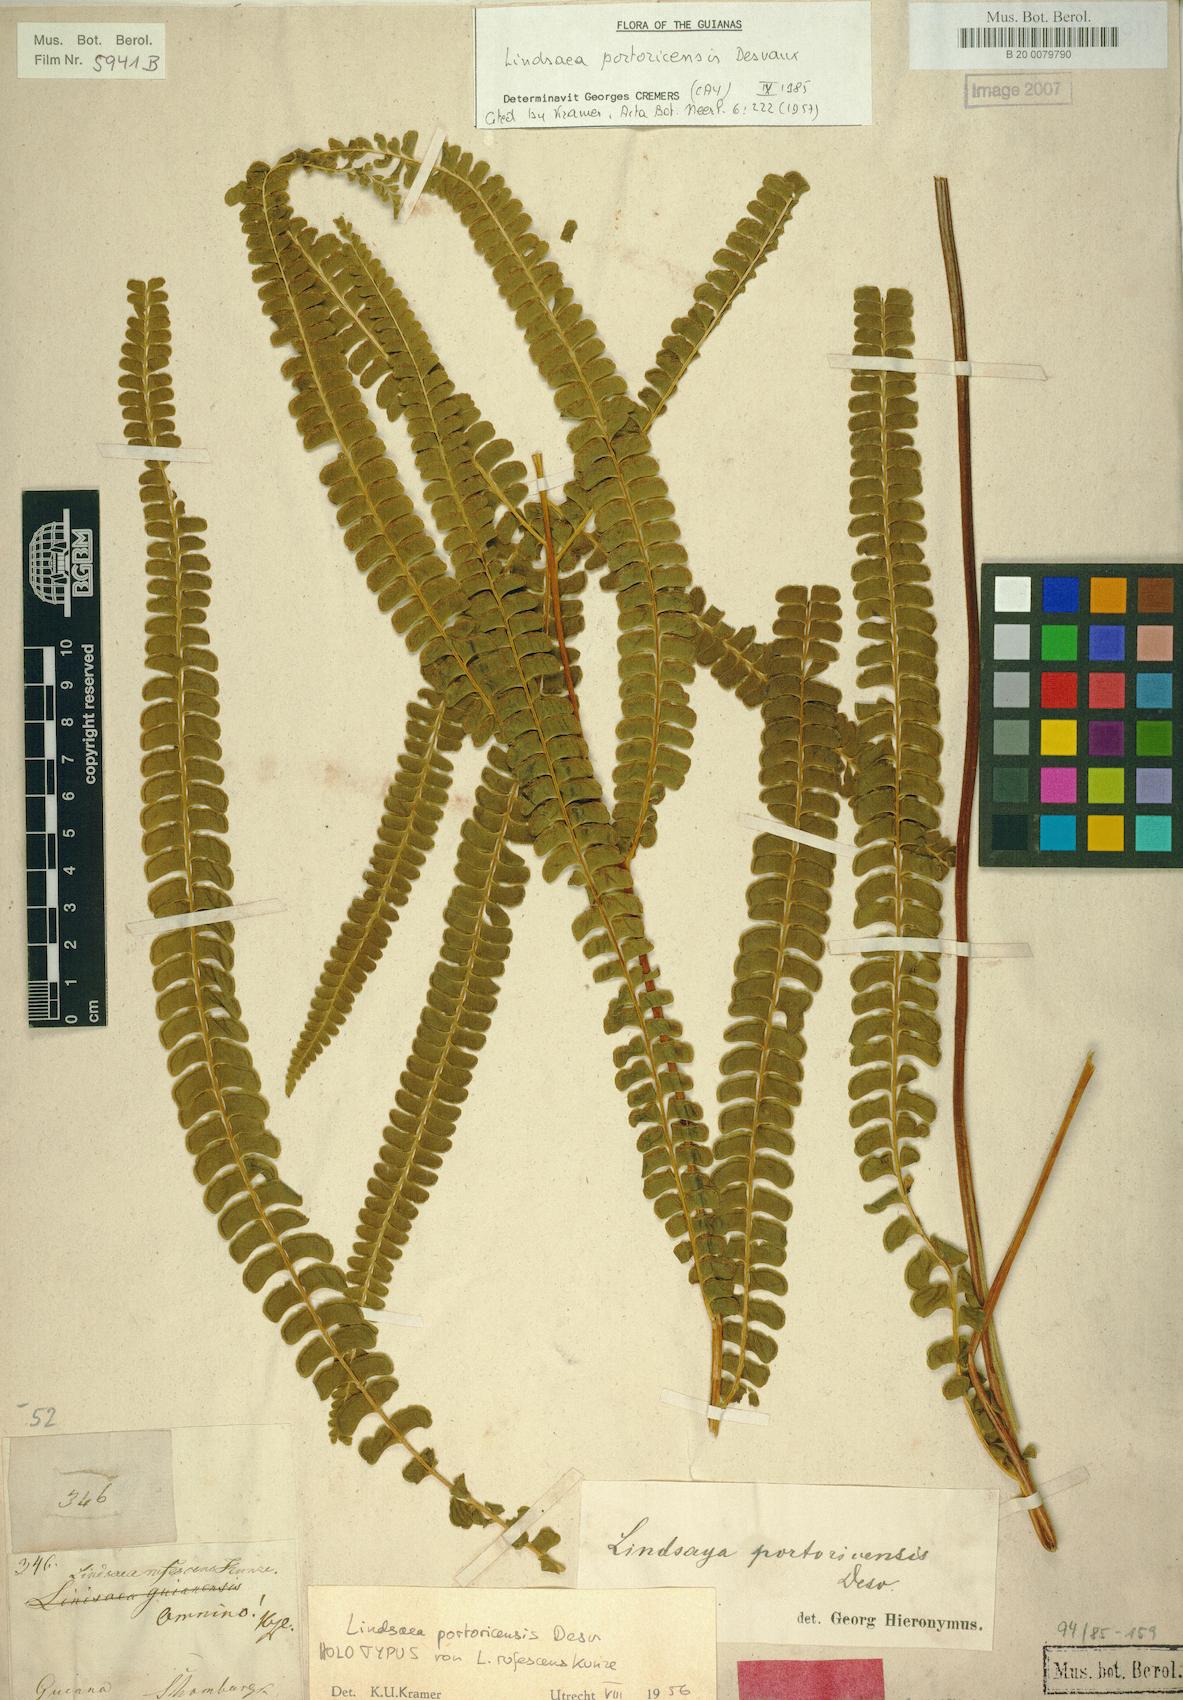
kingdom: Plantae
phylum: Tracheophyta
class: Polypodiopsida
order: Polypodiales
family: Lindsaeaceae
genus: Lindsaea
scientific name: Lindsaea portoricensis
